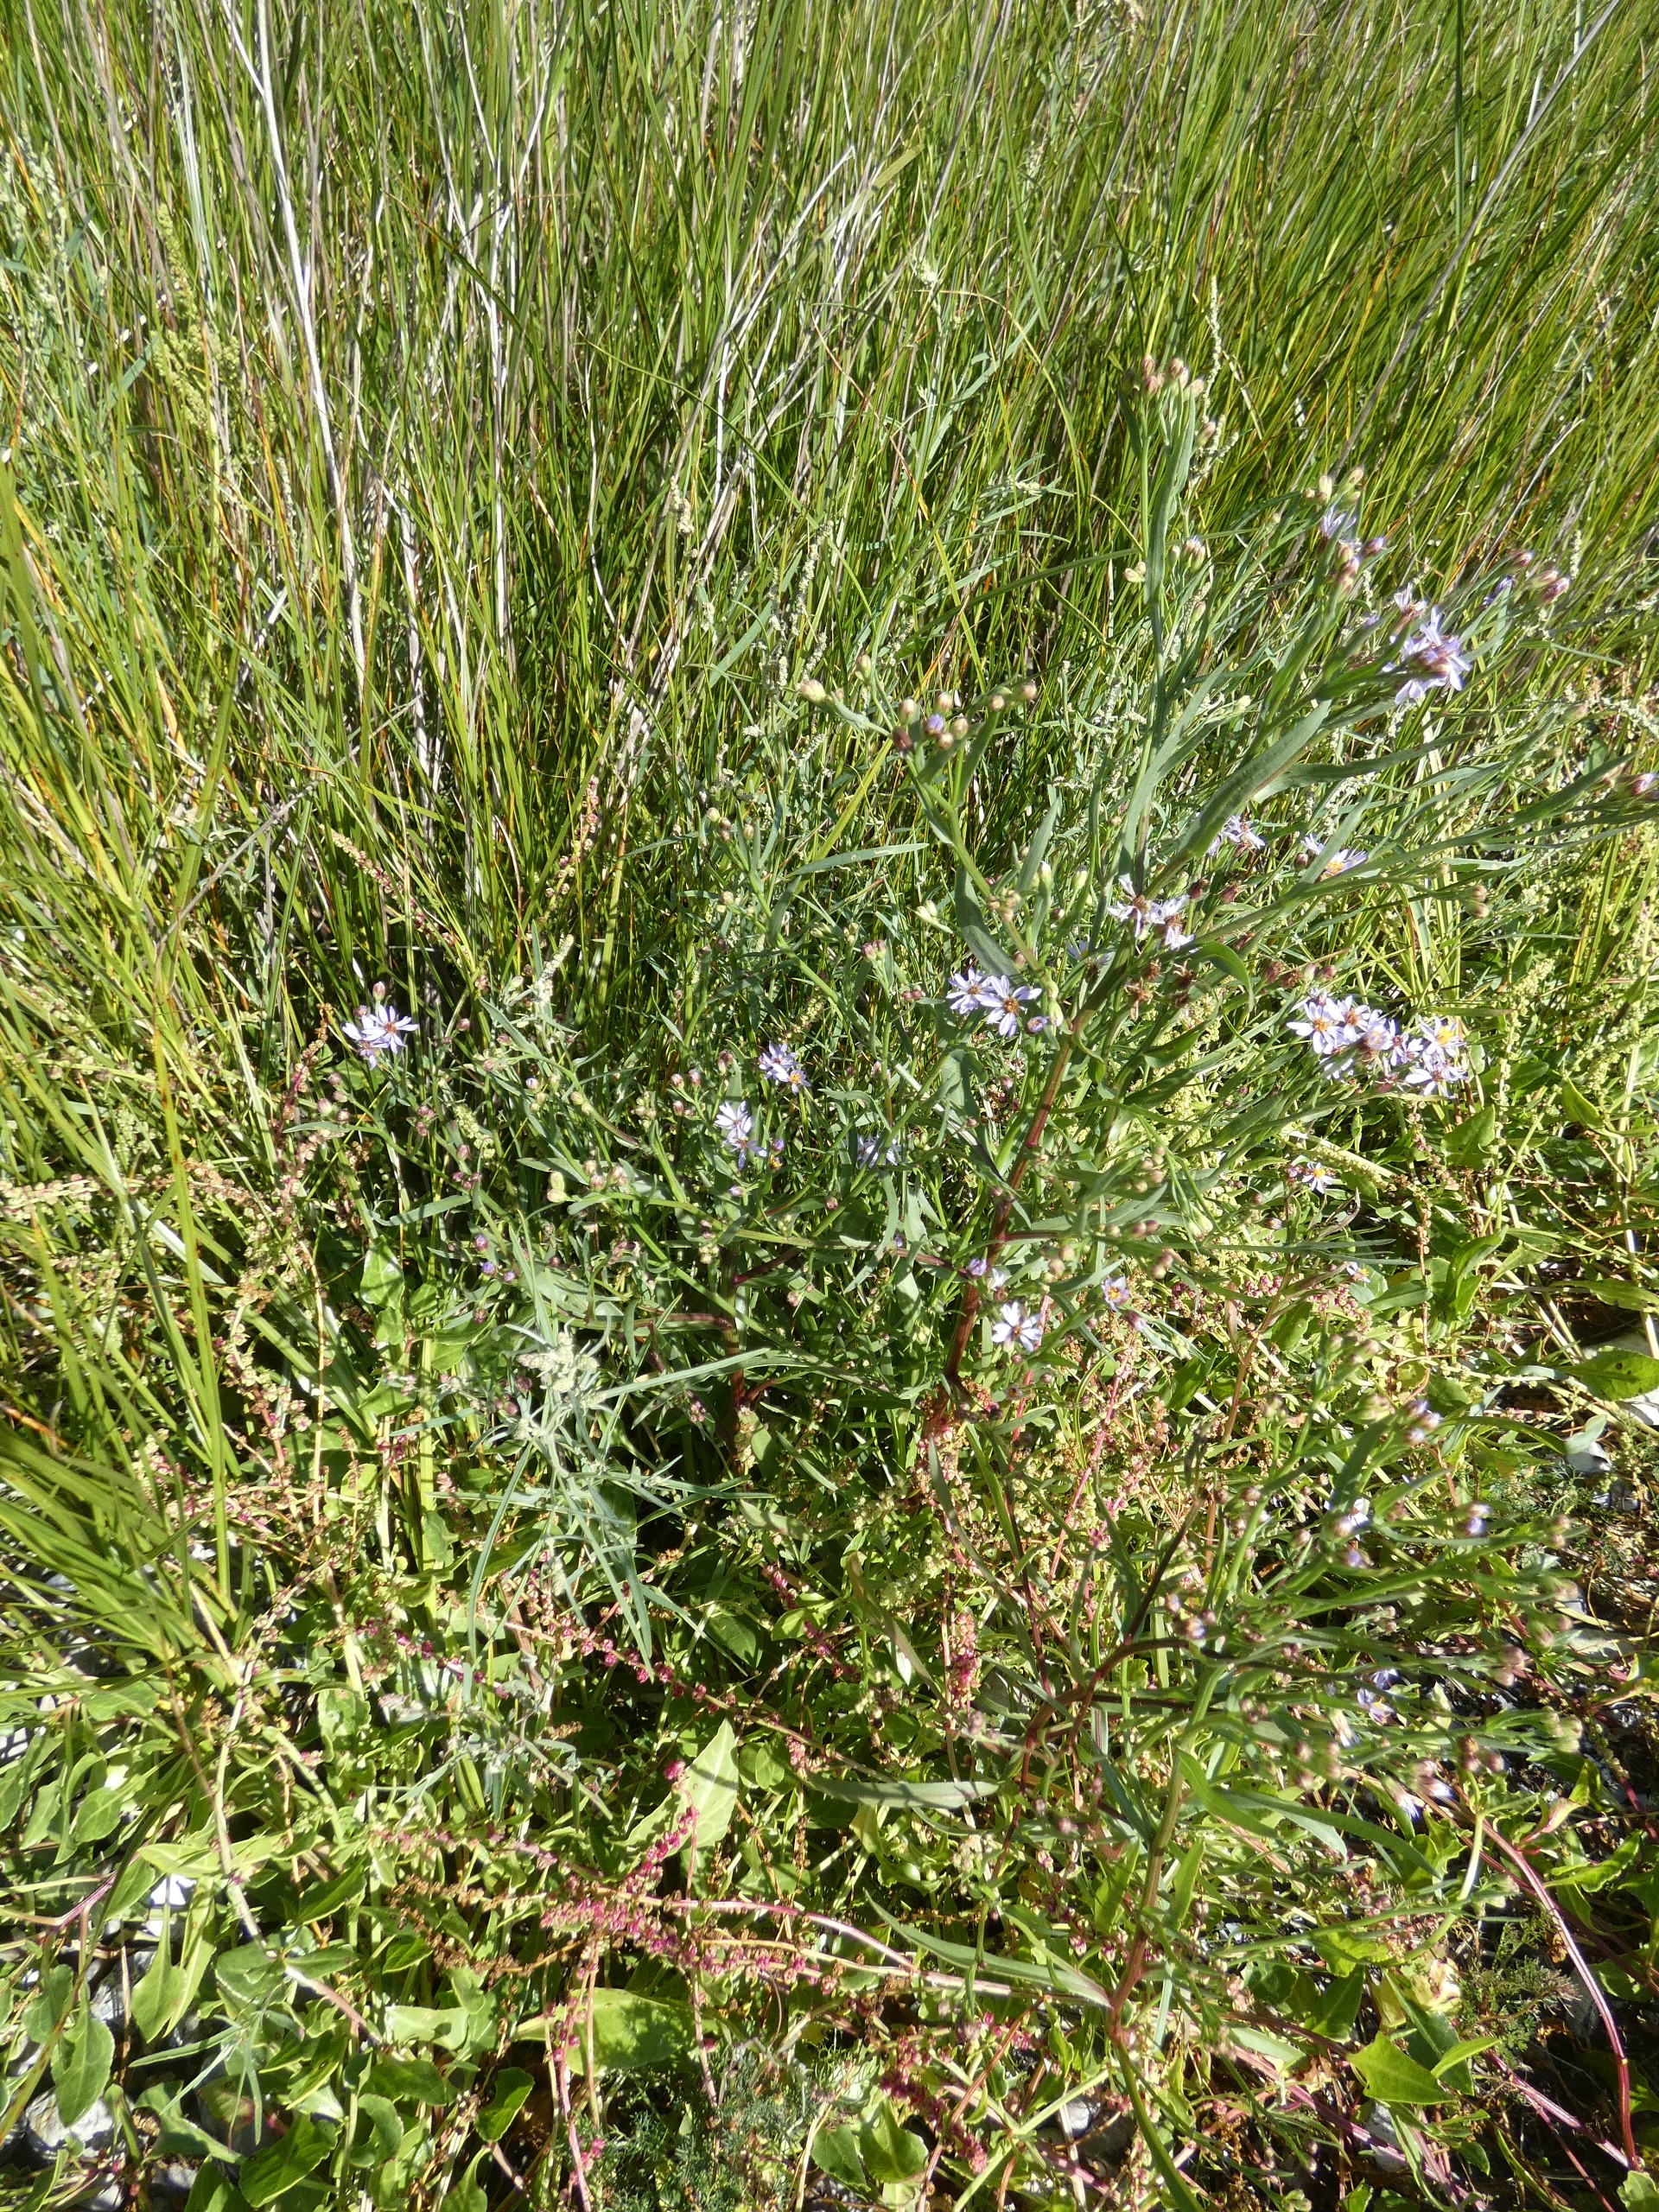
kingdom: Plantae
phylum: Tracheophyta
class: Magnoliopsida
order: Asterales
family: Asteraceae
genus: Tripolium
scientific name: Tripolium pannonicum
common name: Strandasters
